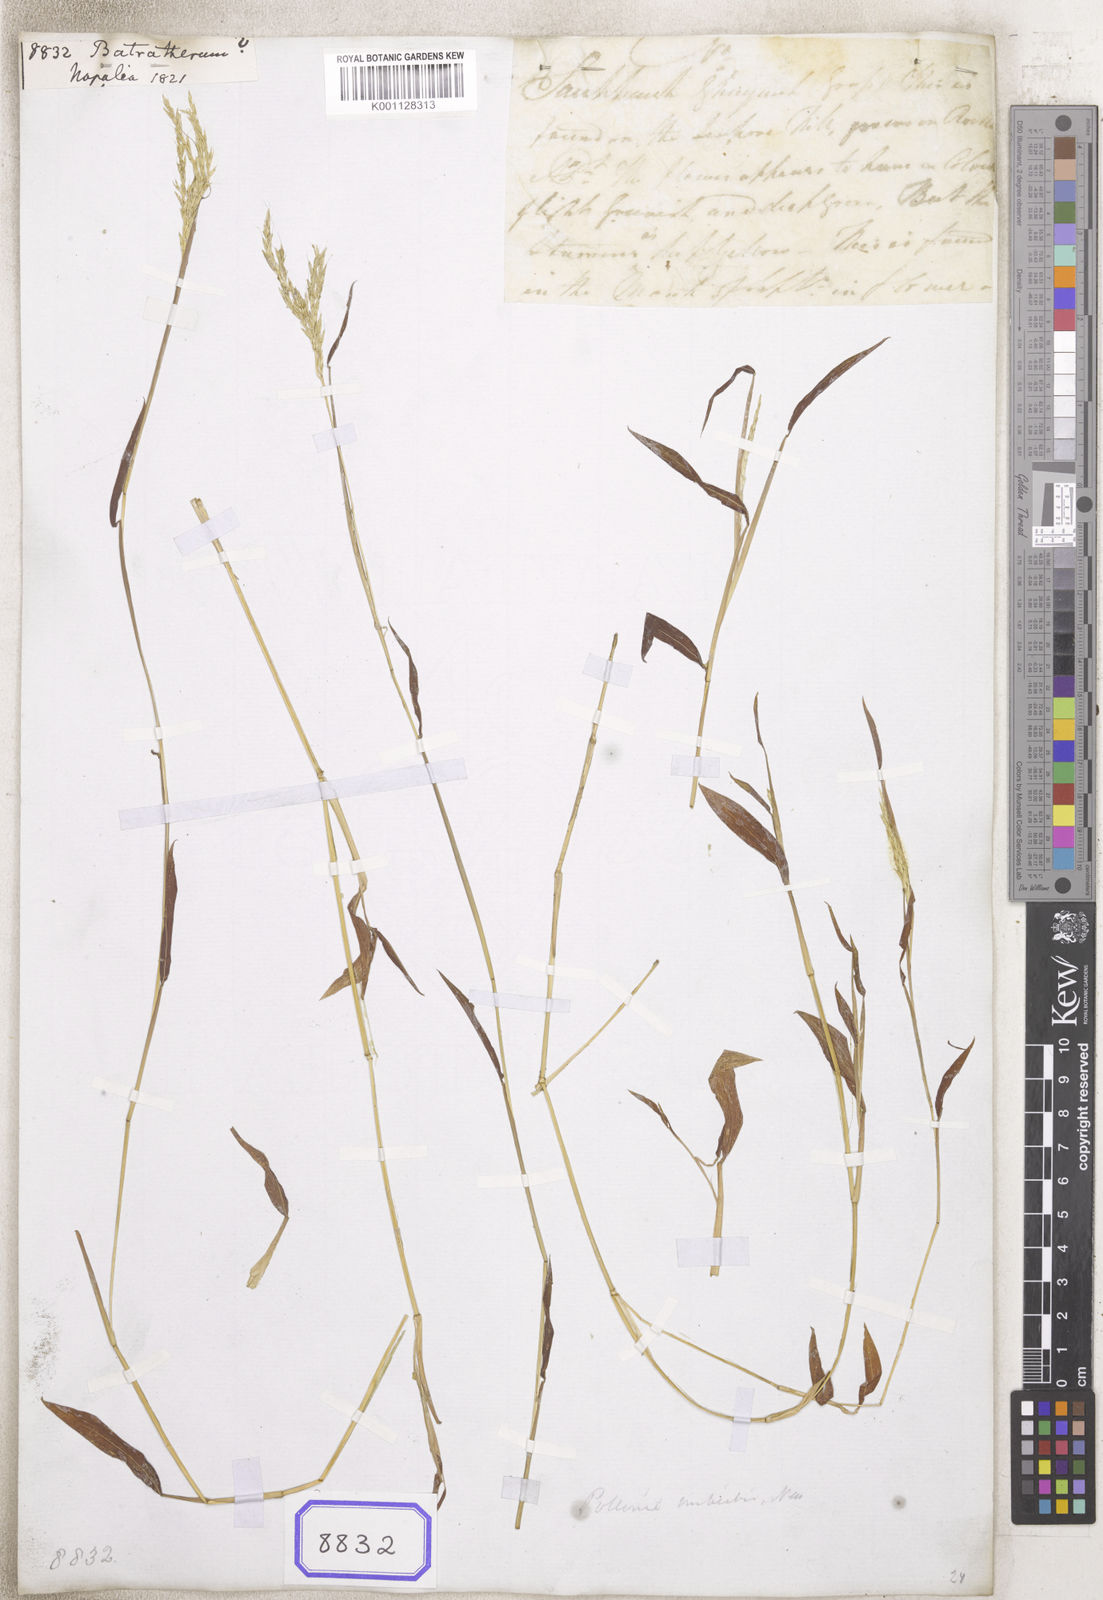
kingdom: Plantae
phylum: Tracheophyta
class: Liliopsida
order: Poales
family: Poaceae
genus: Arthraxon
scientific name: Arthraxon
